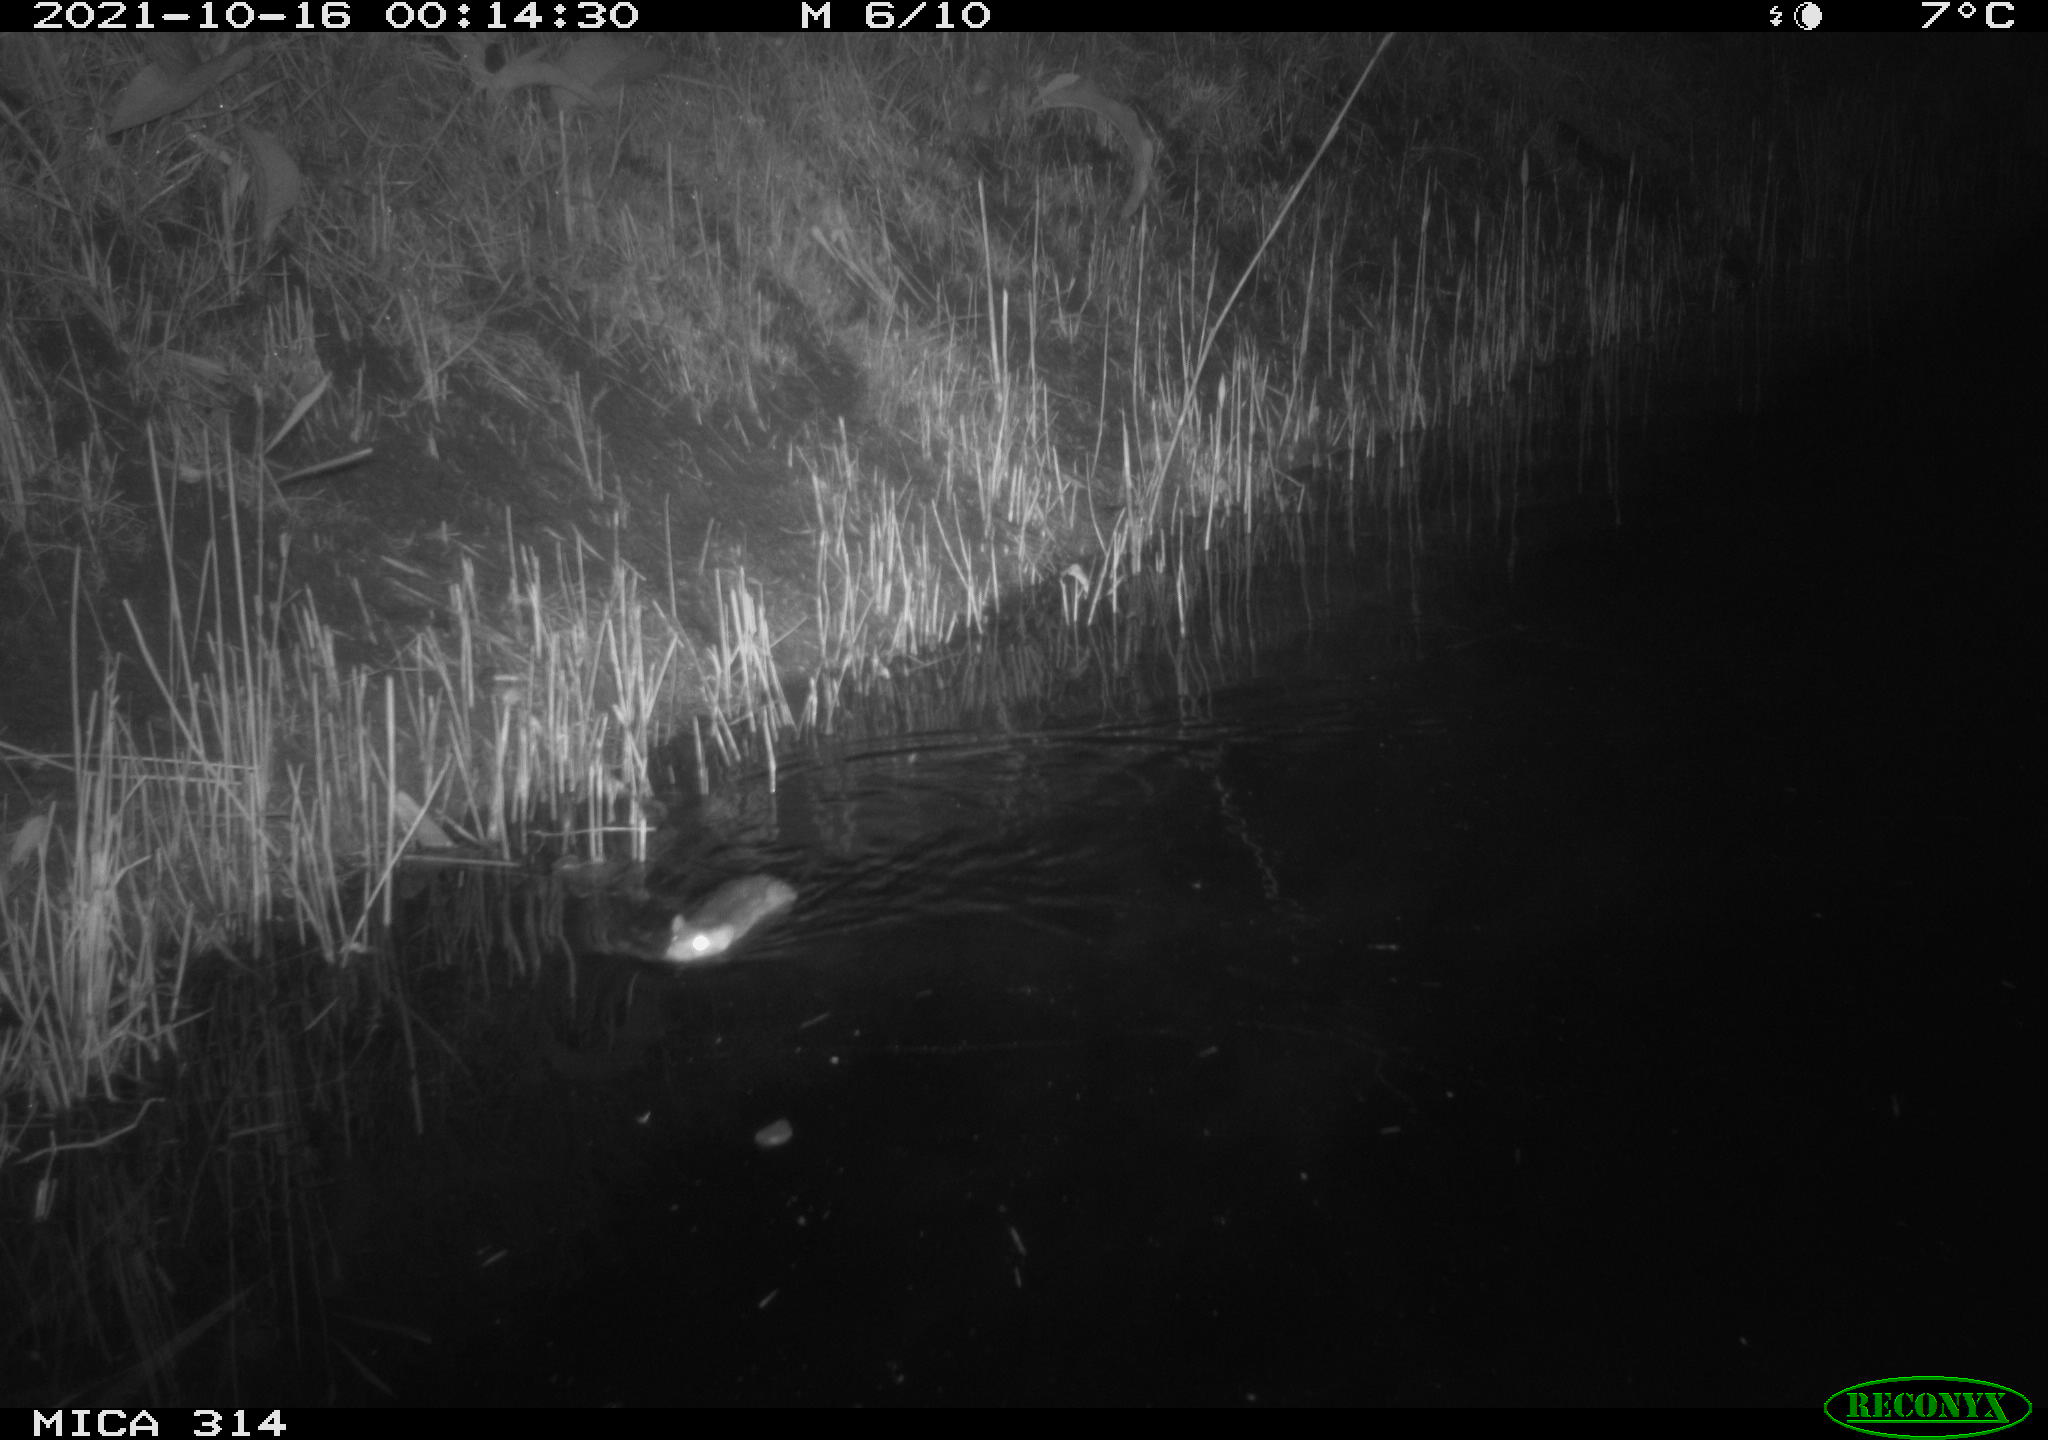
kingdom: Animalia
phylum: Chordata
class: Mammalia
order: Rodentia
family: Muridae
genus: Rattus
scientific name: Rattus norvegicus
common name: Brown rat
